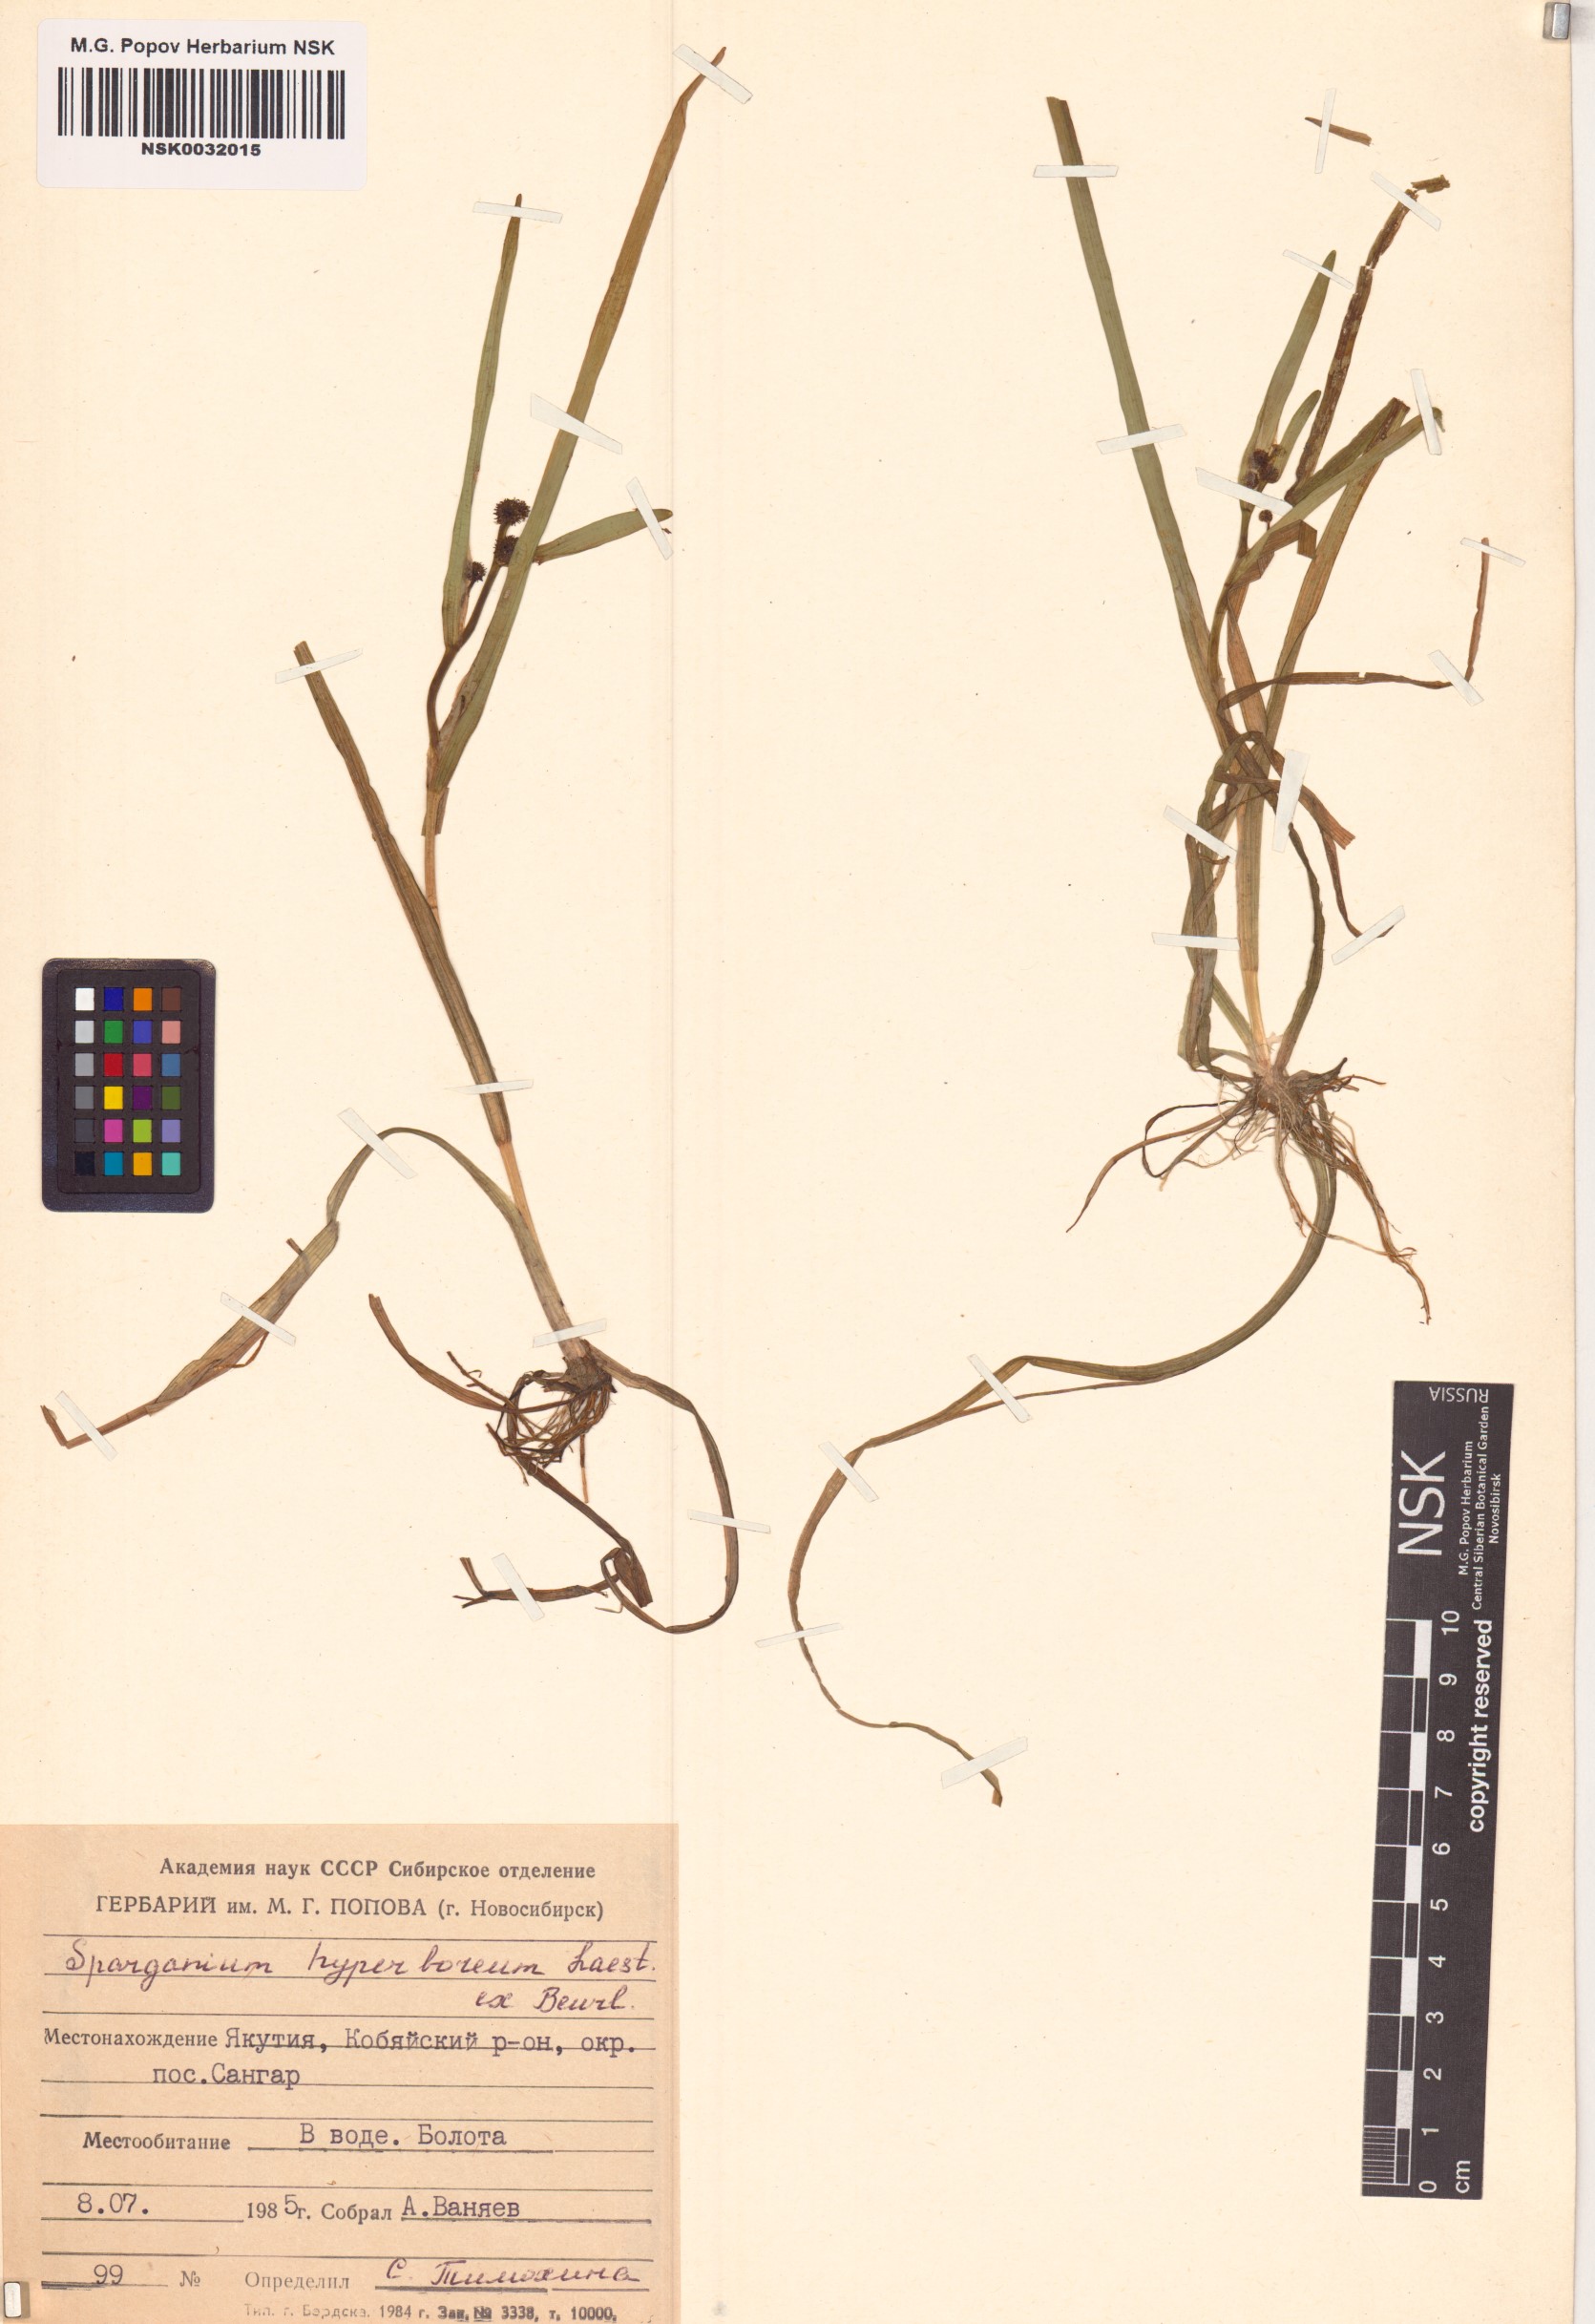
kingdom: Plantae
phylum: Tracheophyta
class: Liliopsida
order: Poales
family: Typhaceae
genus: Sparganium
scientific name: Sparganium hyperboreum
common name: Arctic burreed
